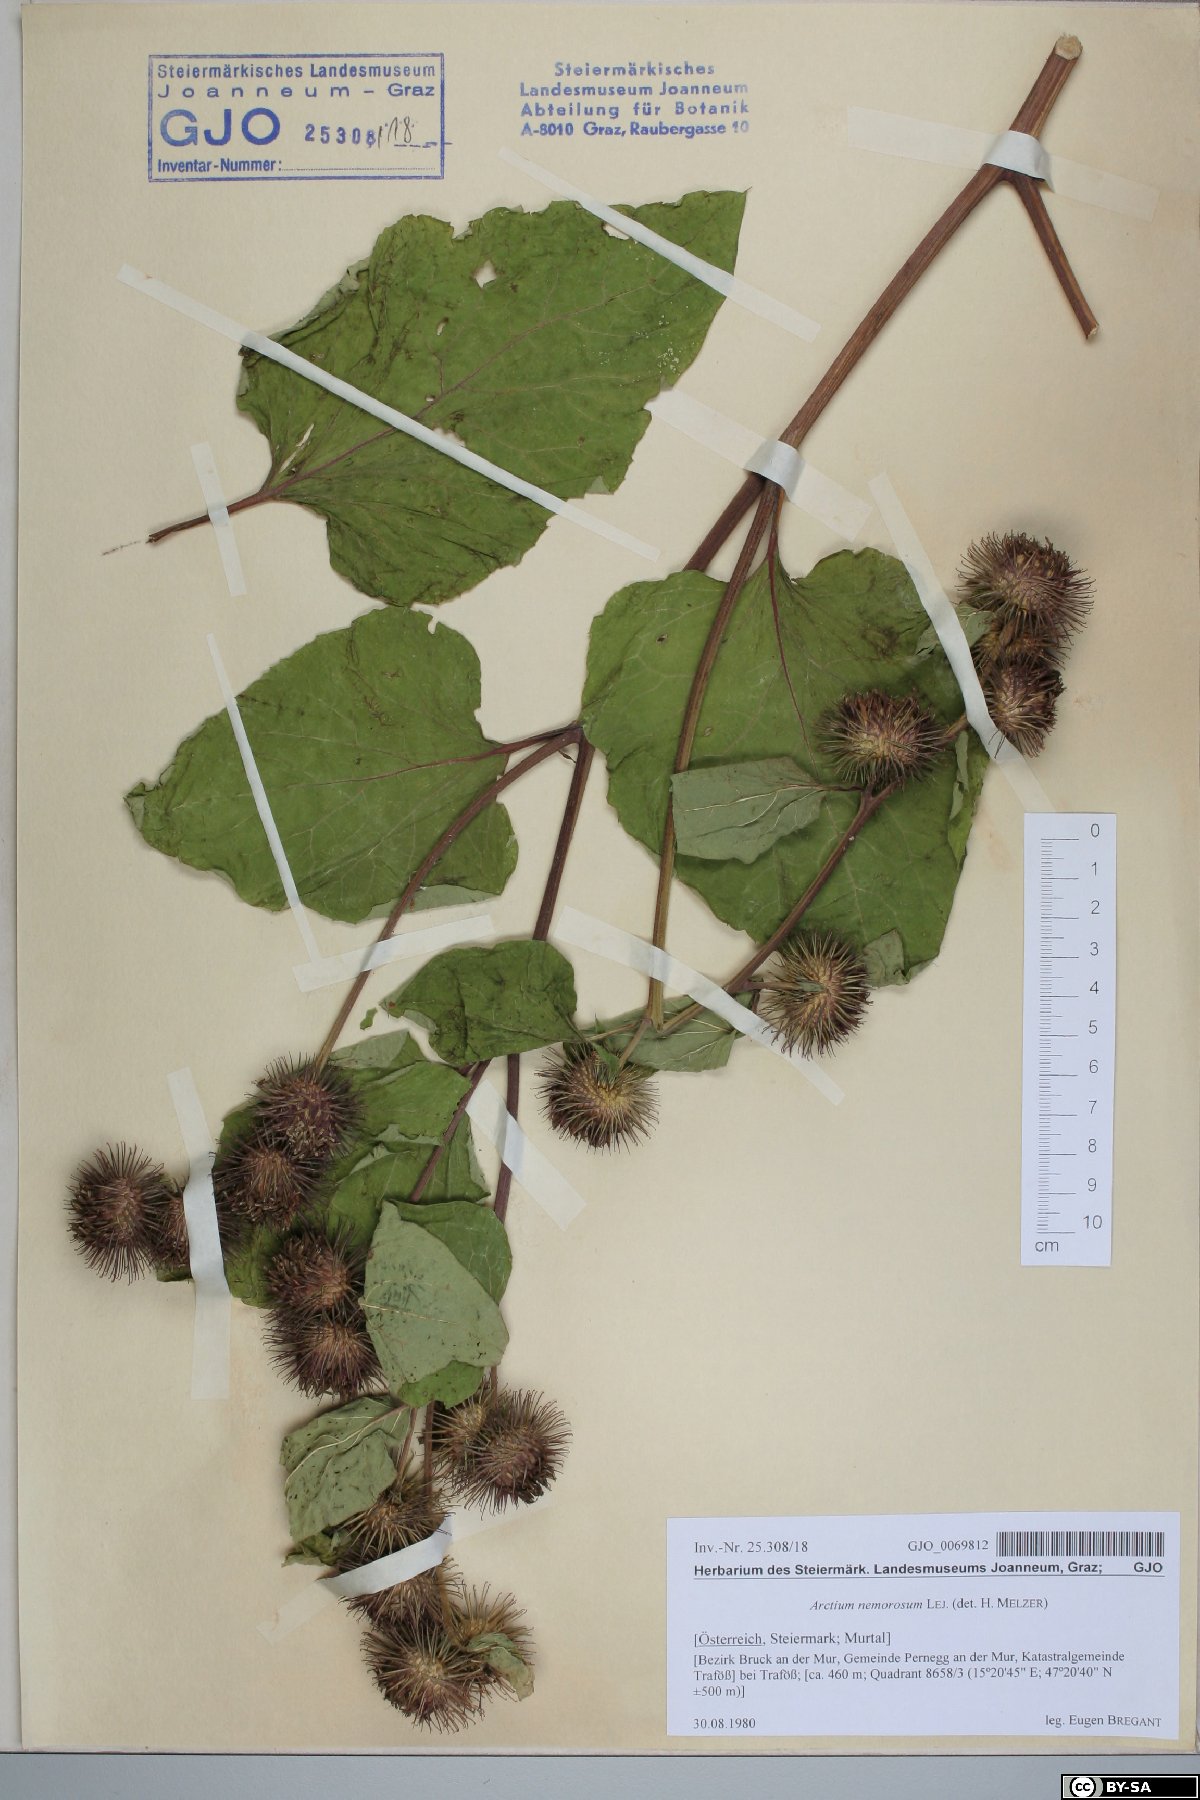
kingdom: Plantae
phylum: Tracheophyta
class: Magnoliopsida
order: Asterales
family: Asteraceae
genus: Arctium
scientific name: Arctium nemorosum
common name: Wood burdock
